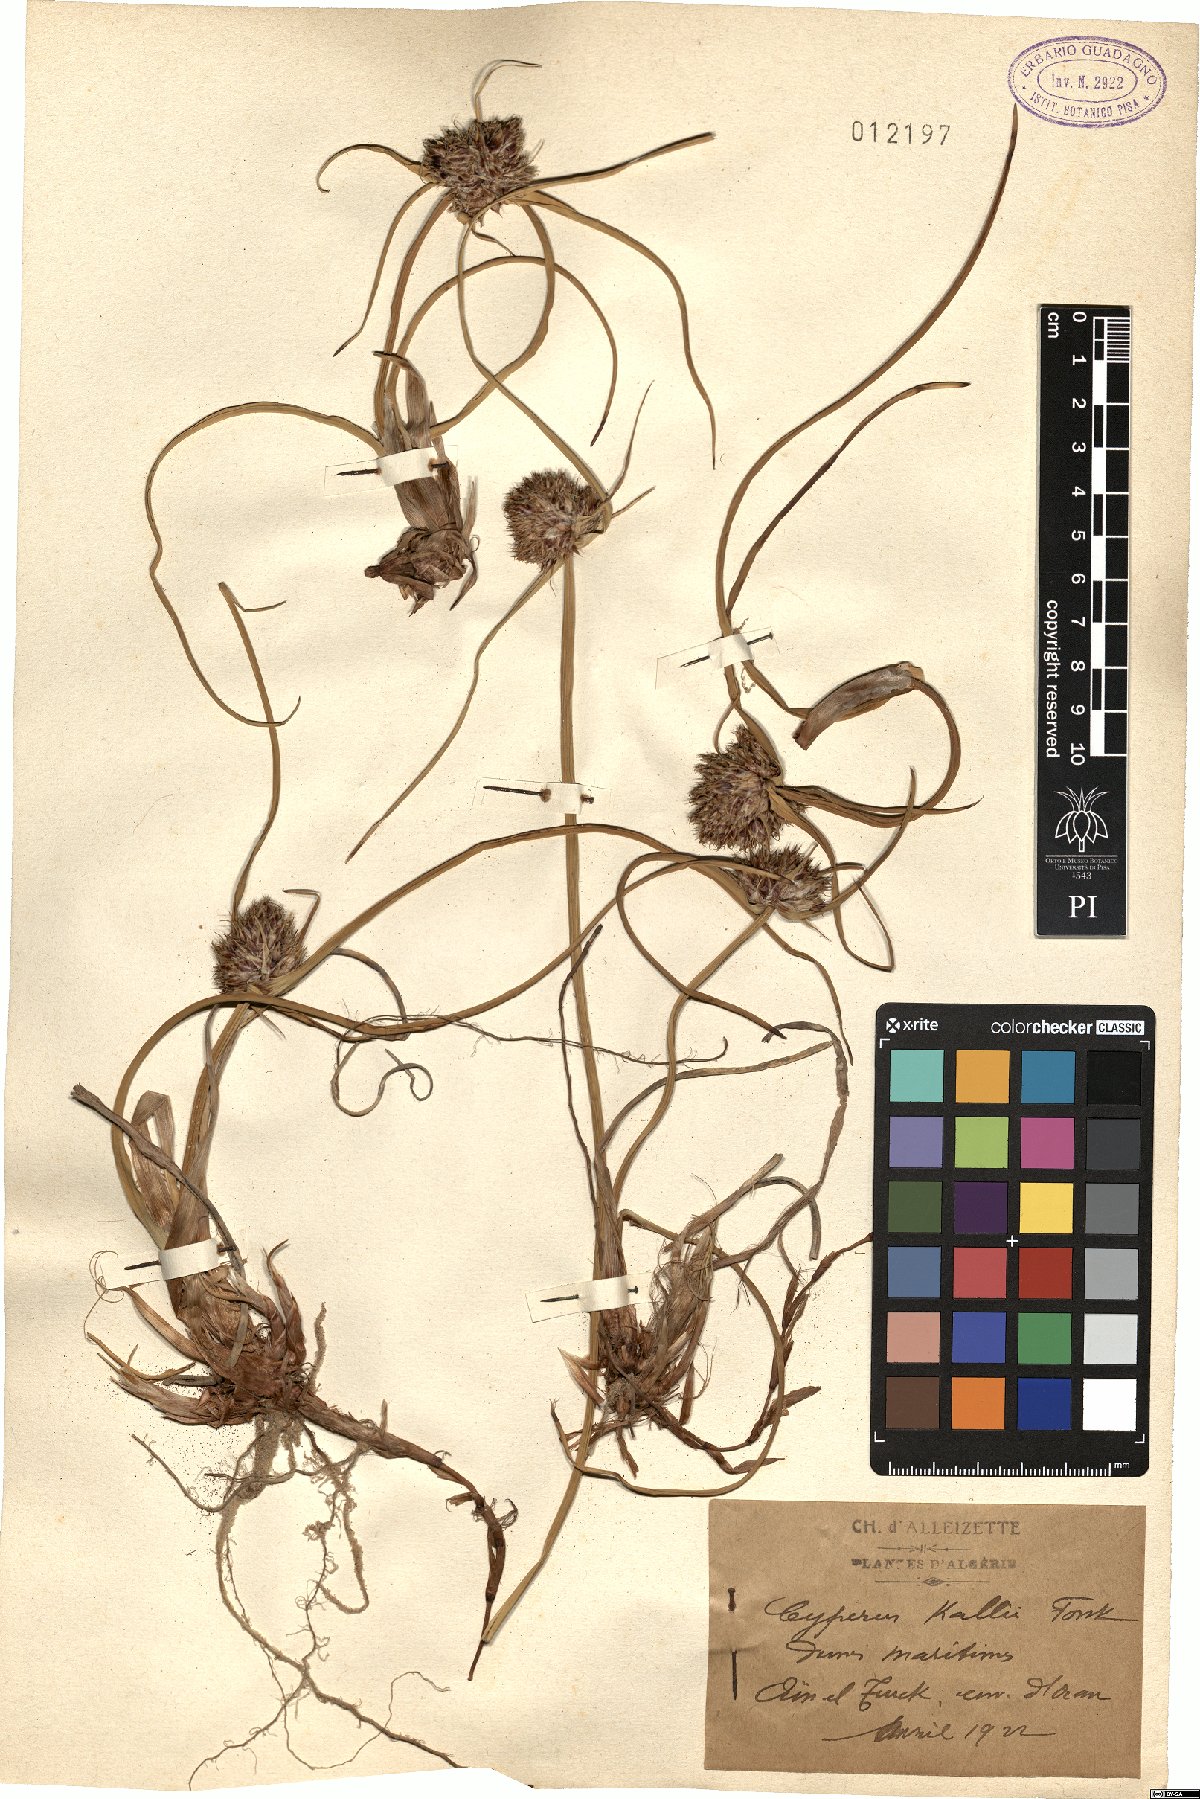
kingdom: Plantae
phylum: Tracheophyta
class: Liliopsida
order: Poales
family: Cyperaceae
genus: Cyperus
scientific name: Cyperus capitatus
